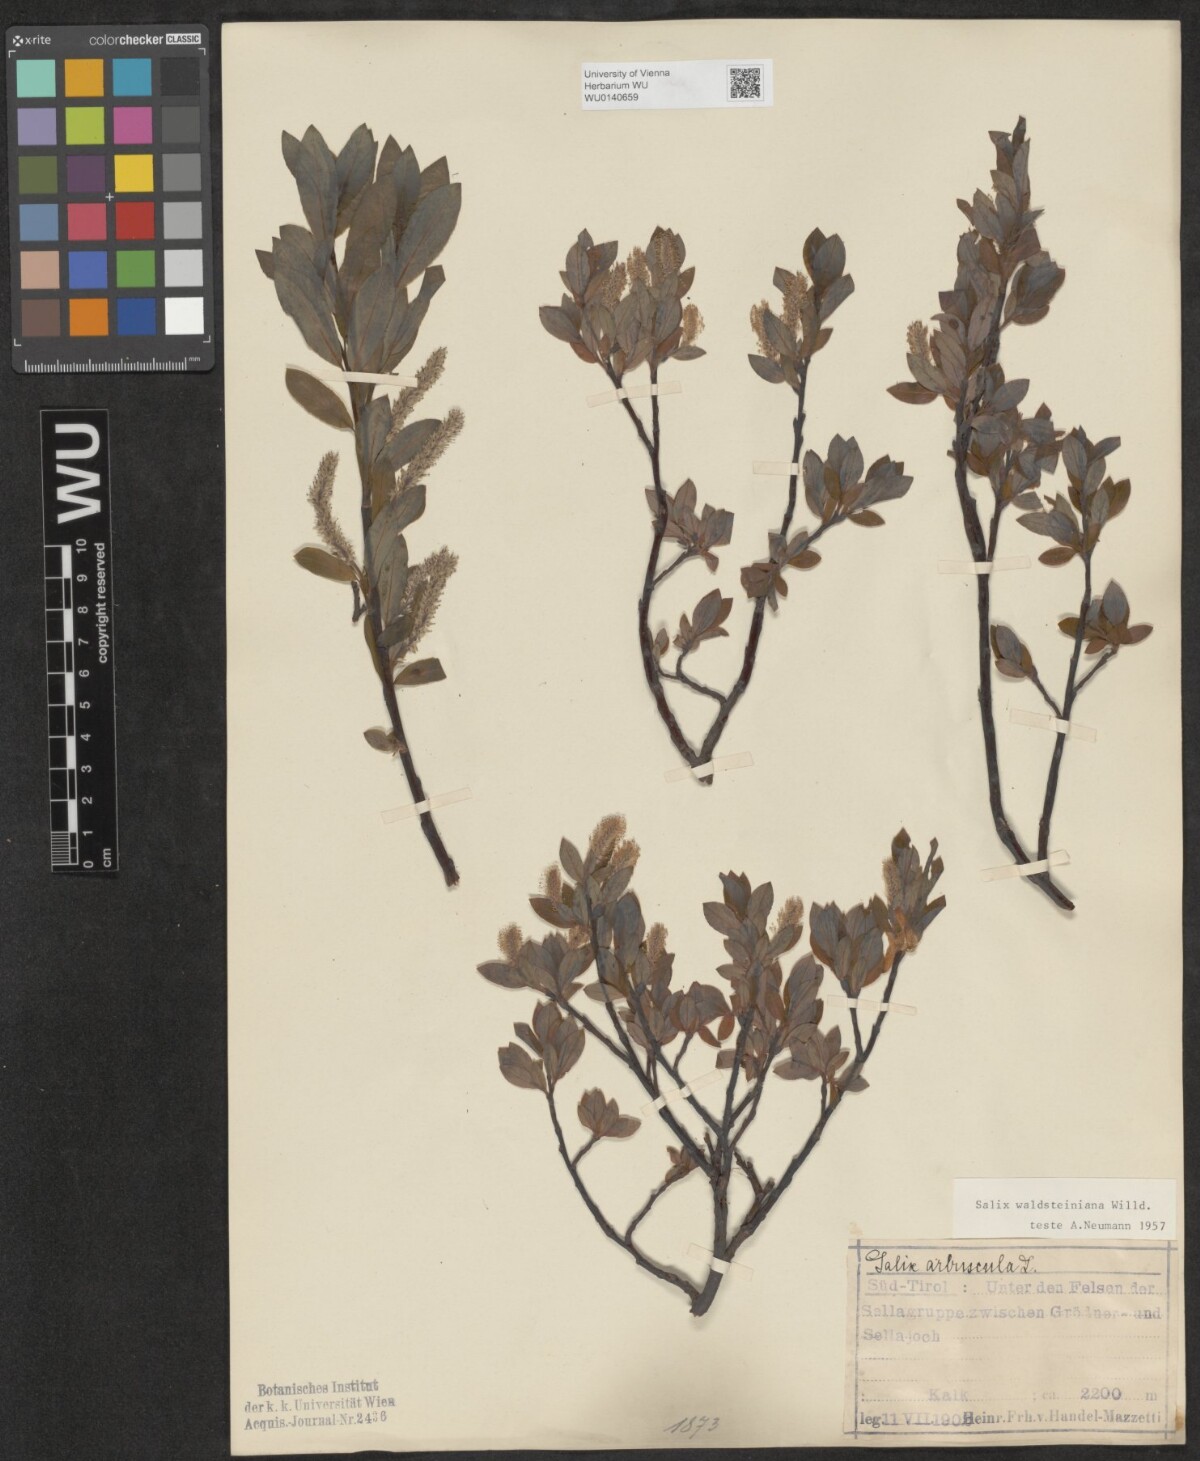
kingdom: Plantae
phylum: Tracheophyta
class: Magnoliopsida
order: Malpighiales
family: Salicaceae
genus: Salix
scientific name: Salix waldsteiniana
